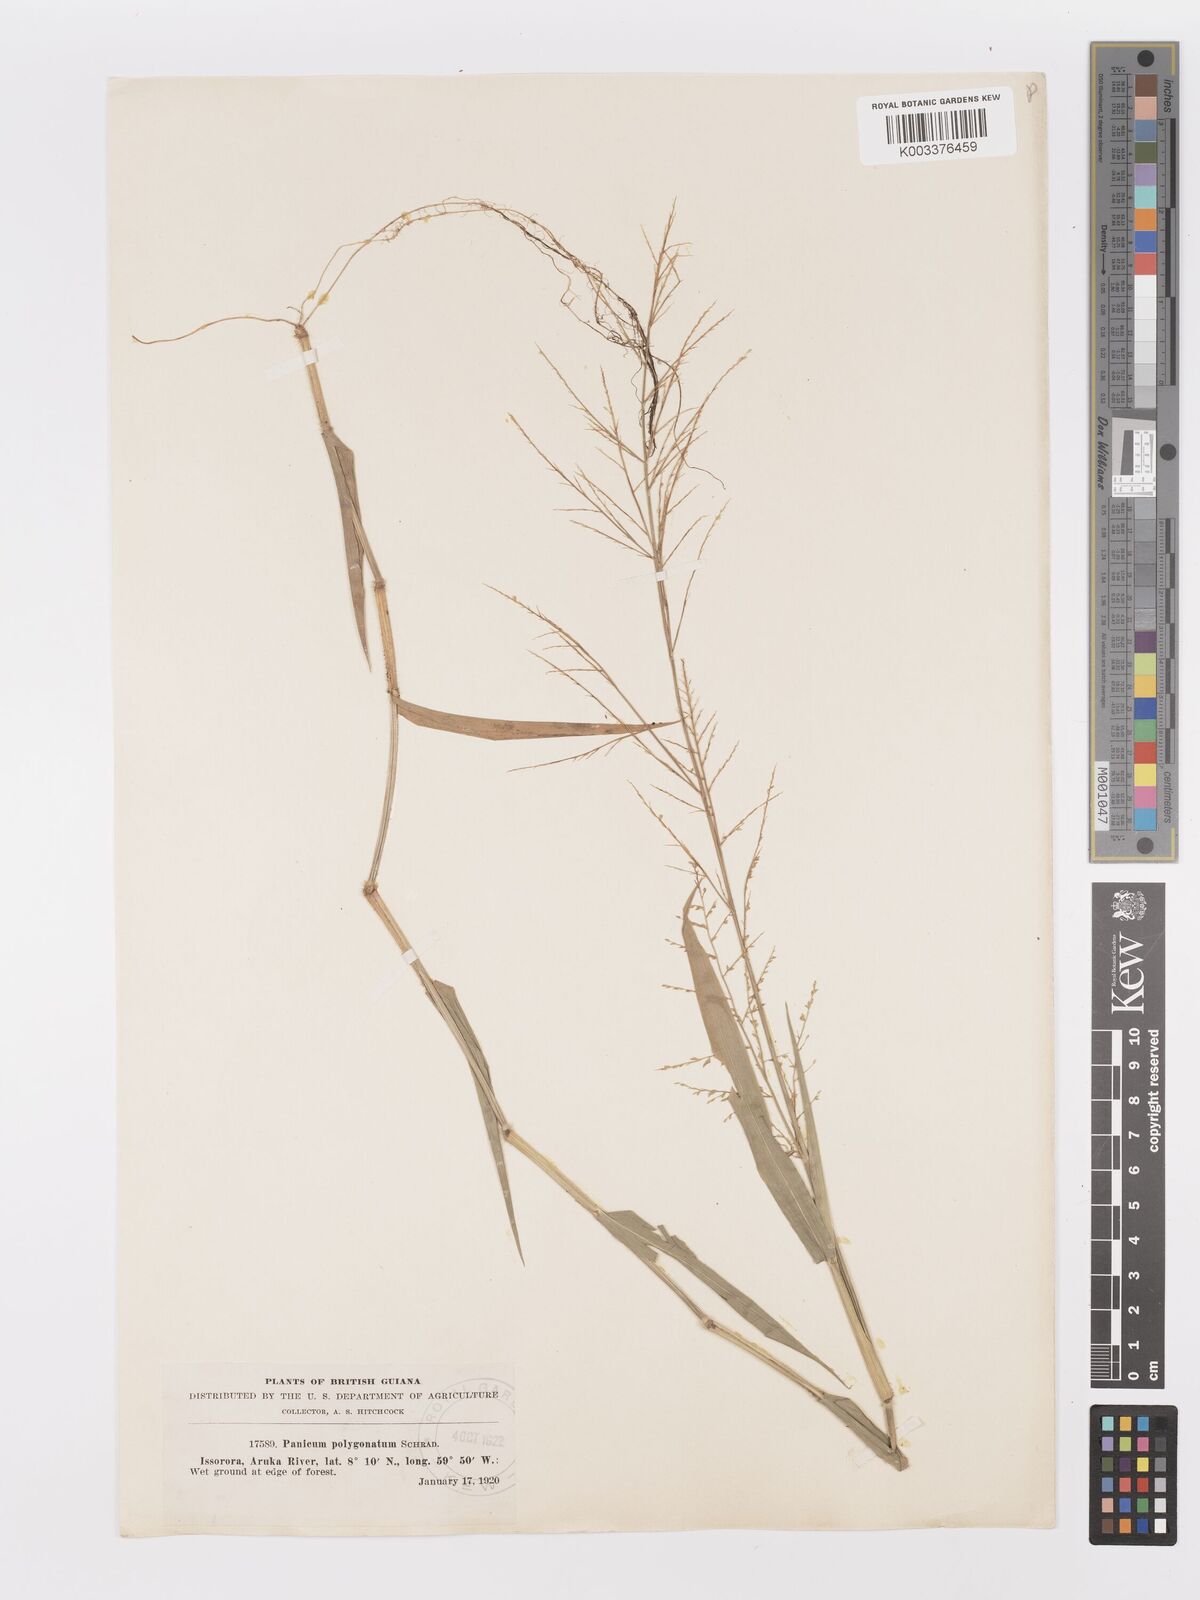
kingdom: Plantae
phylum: Tracheophyta
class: Liliopsida
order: Poales
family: Poaceae
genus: Rugoloa
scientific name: Rugoloa polygonata
